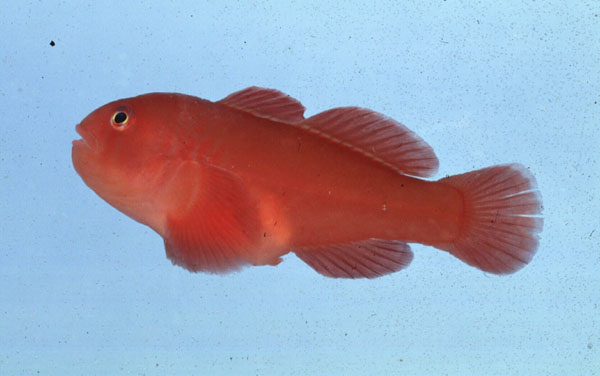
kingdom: Animalia
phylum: Chordata
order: Perciformes
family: Gobiidae
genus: Gobiodon
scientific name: Gobiodon rivulatus
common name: Rippled coralgoby
